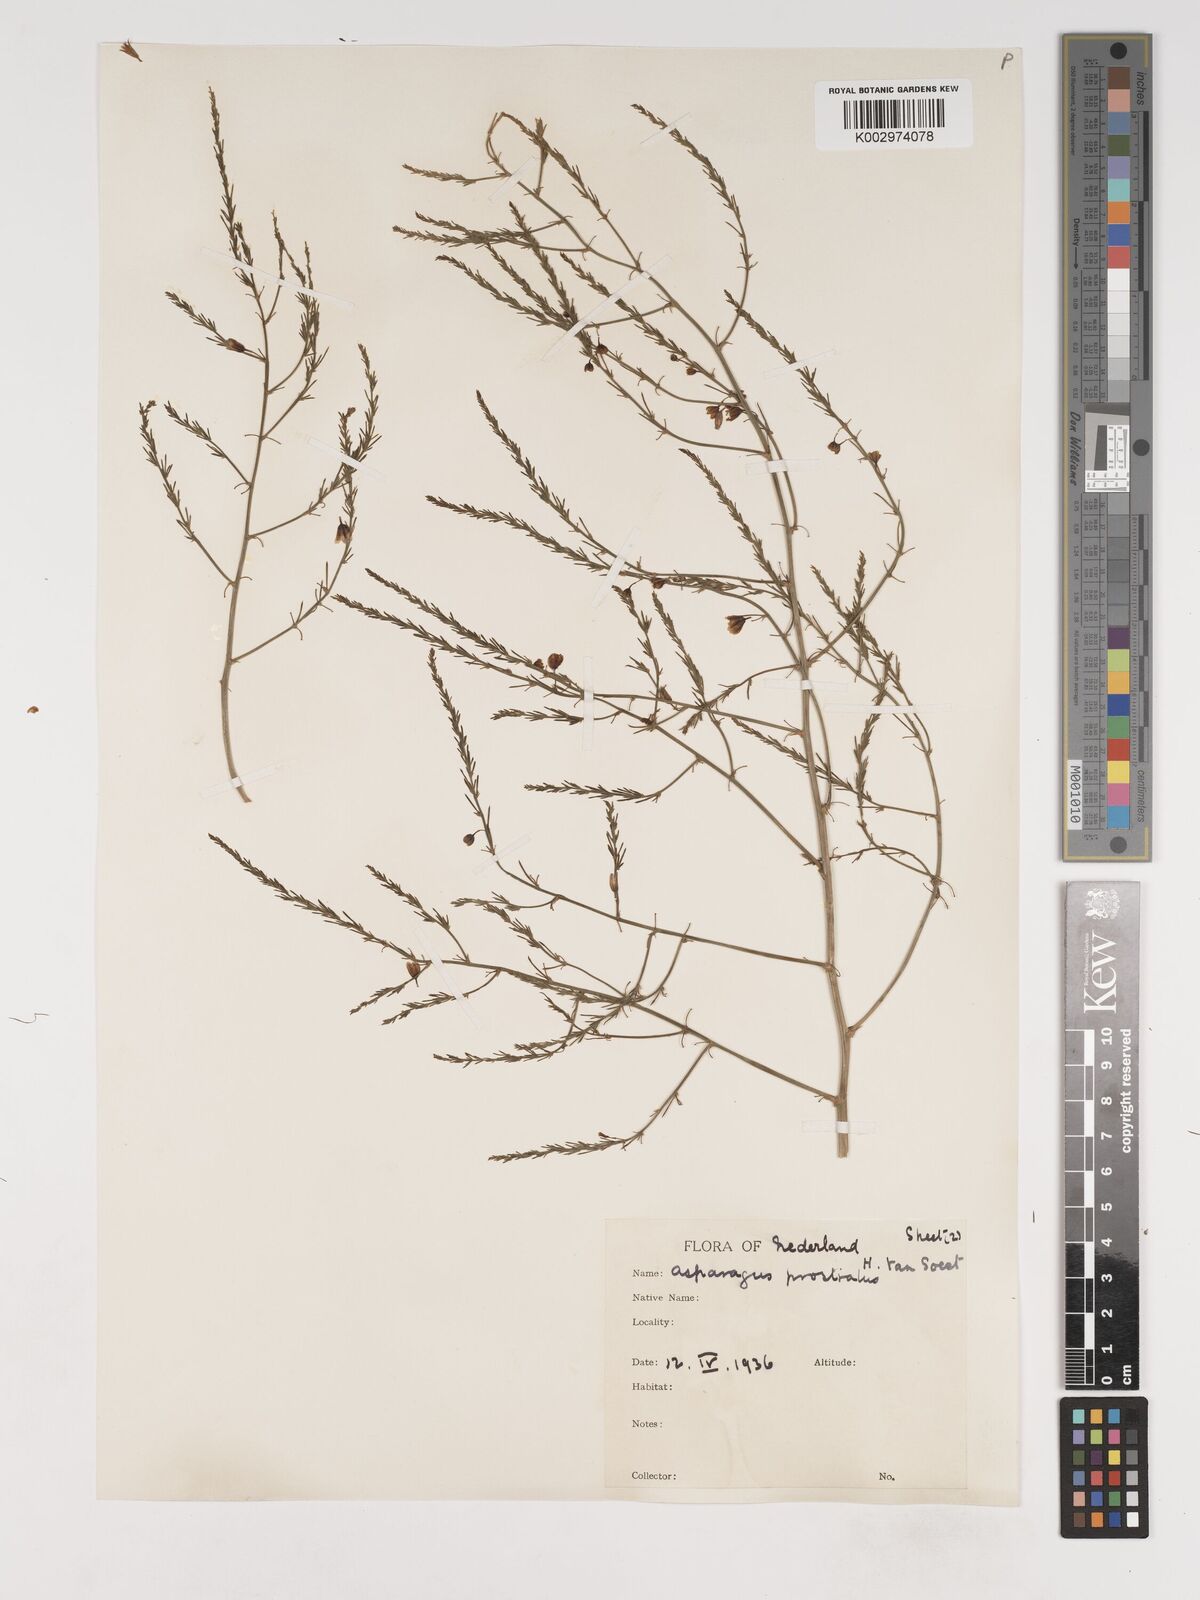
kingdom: Plantae
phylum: Tracheophyta
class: Liliopsida
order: Asparagales
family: Asparagaceae
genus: Asparagus
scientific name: Asparagus prostratus
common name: Wild asparagus
